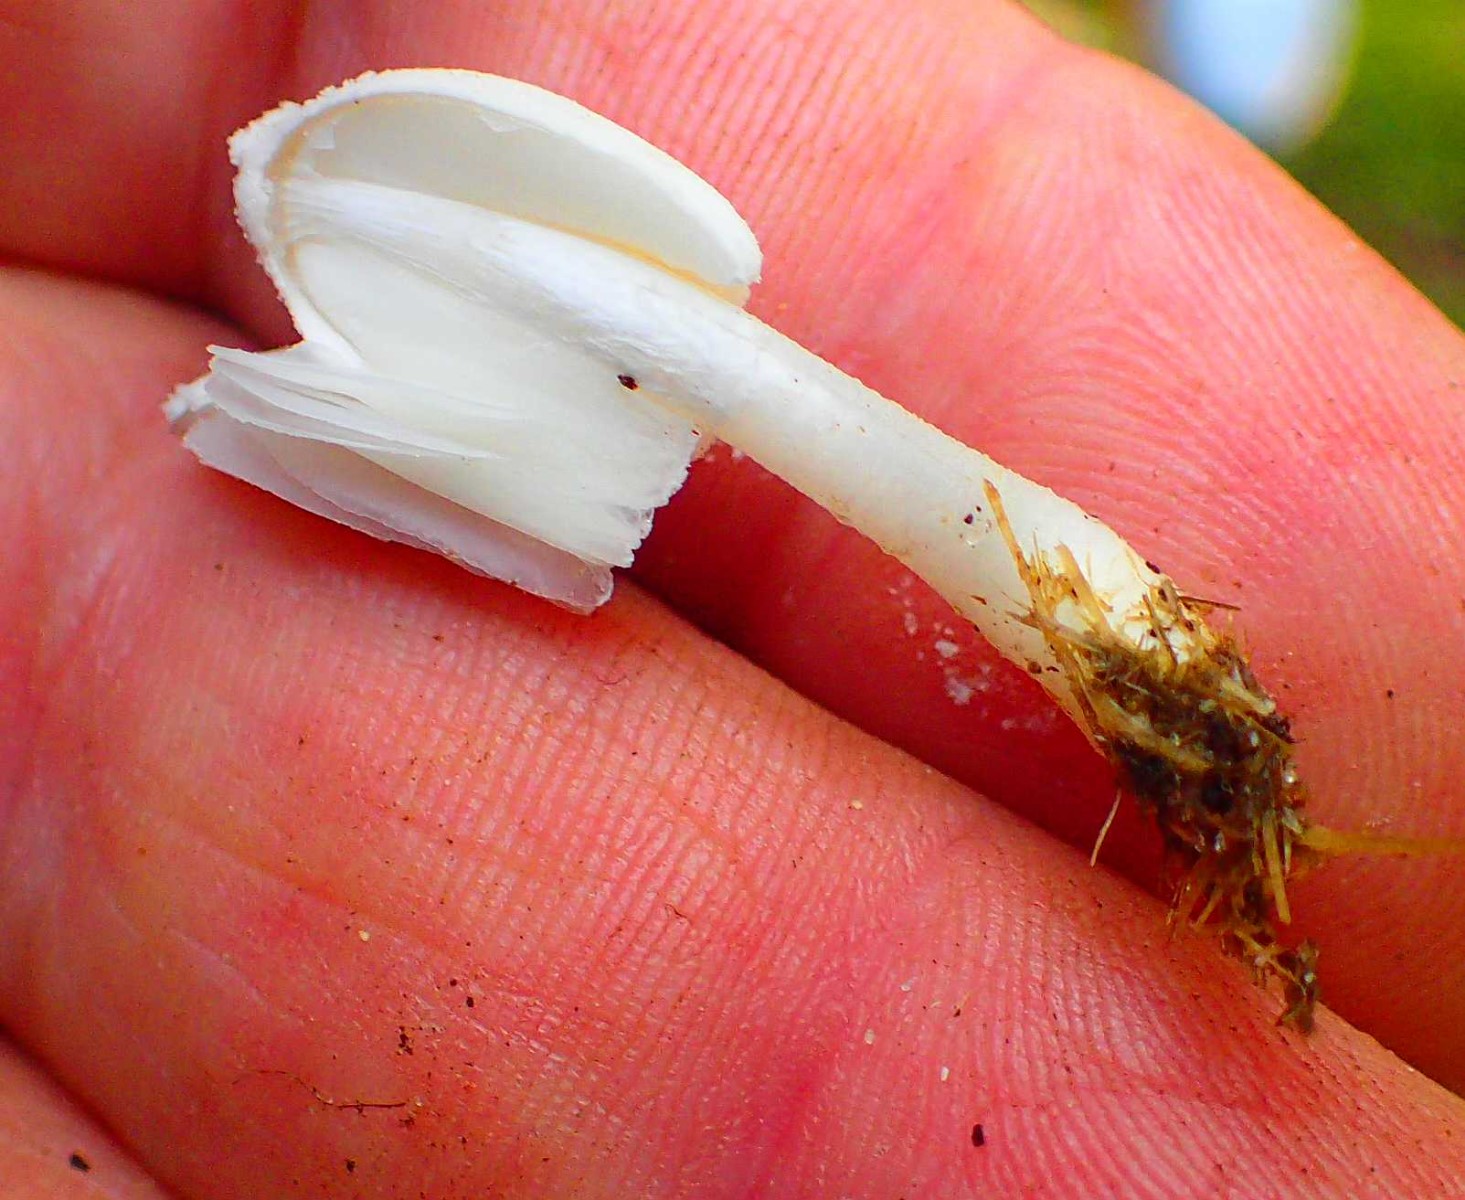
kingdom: Fungi
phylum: Basidiomycota
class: Agaricomycetes
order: Agaricales
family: Psathyrellaceae
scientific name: Psathyrellaceae
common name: mørkhatfamilien
